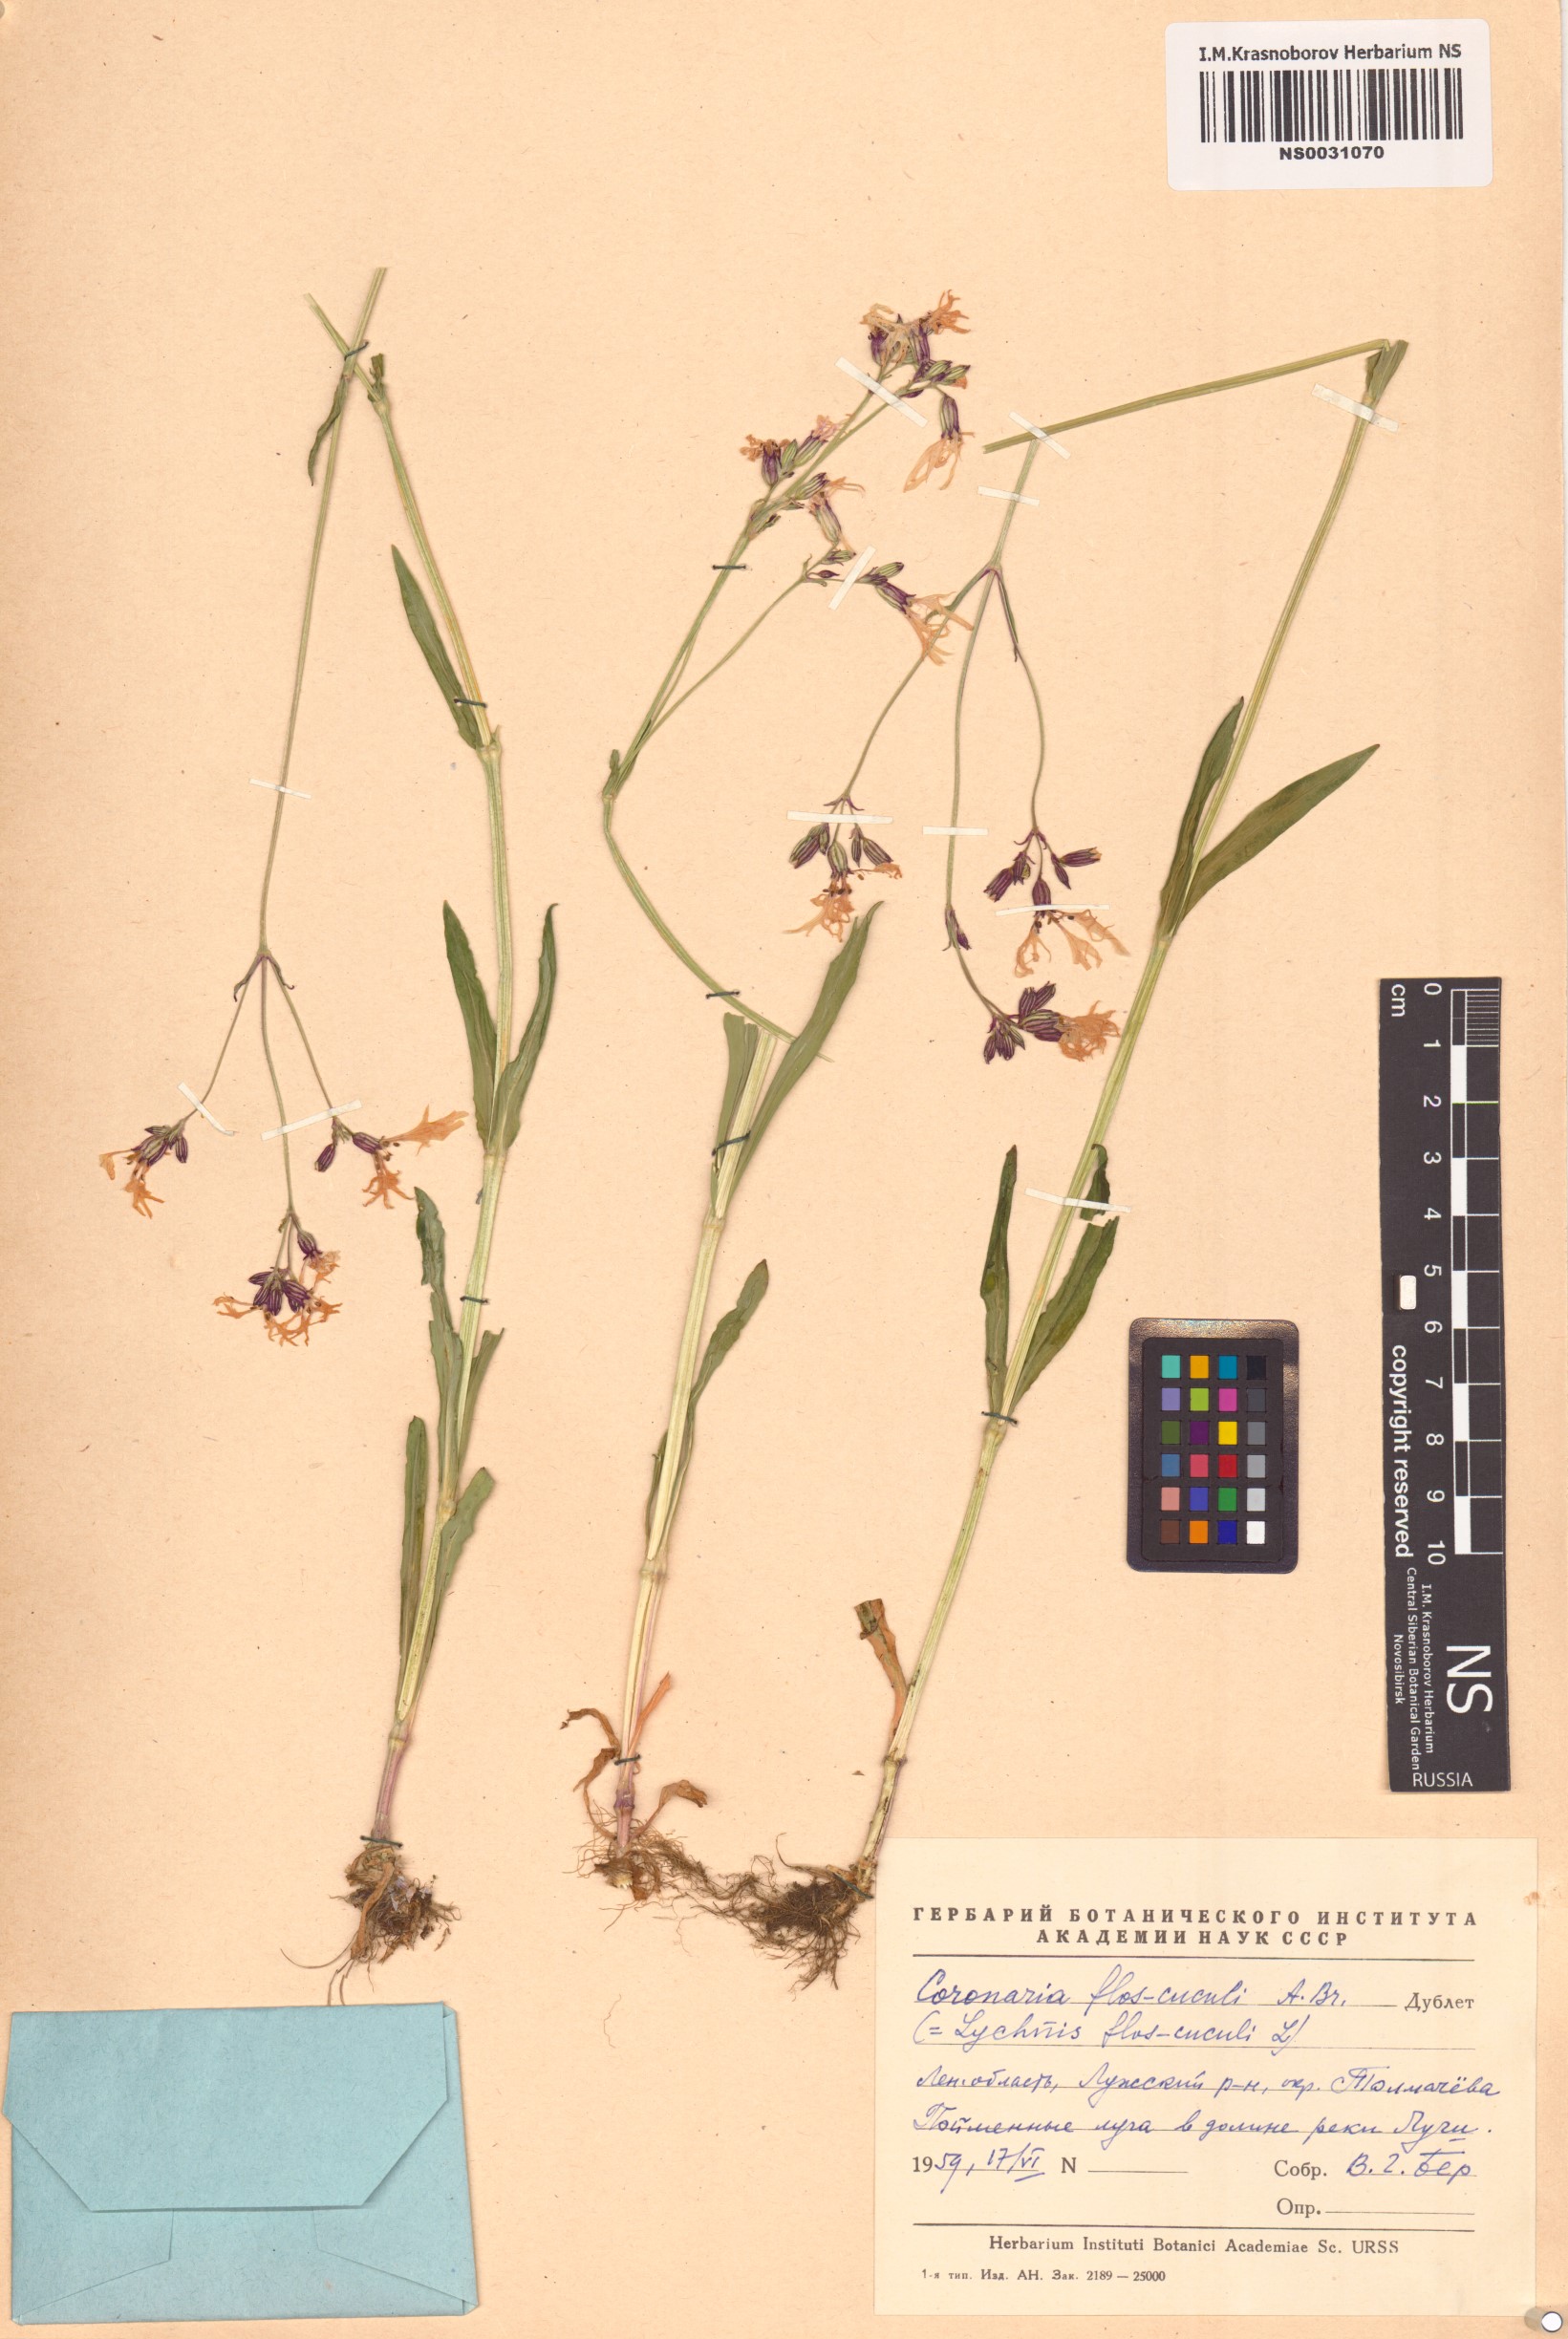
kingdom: Plantae
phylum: Tracheophyta
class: Magnoliopsida
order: Caryophyllales
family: Caryophyllaceae
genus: Silene
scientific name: Silene flos-cuculi
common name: Ragged-robin
